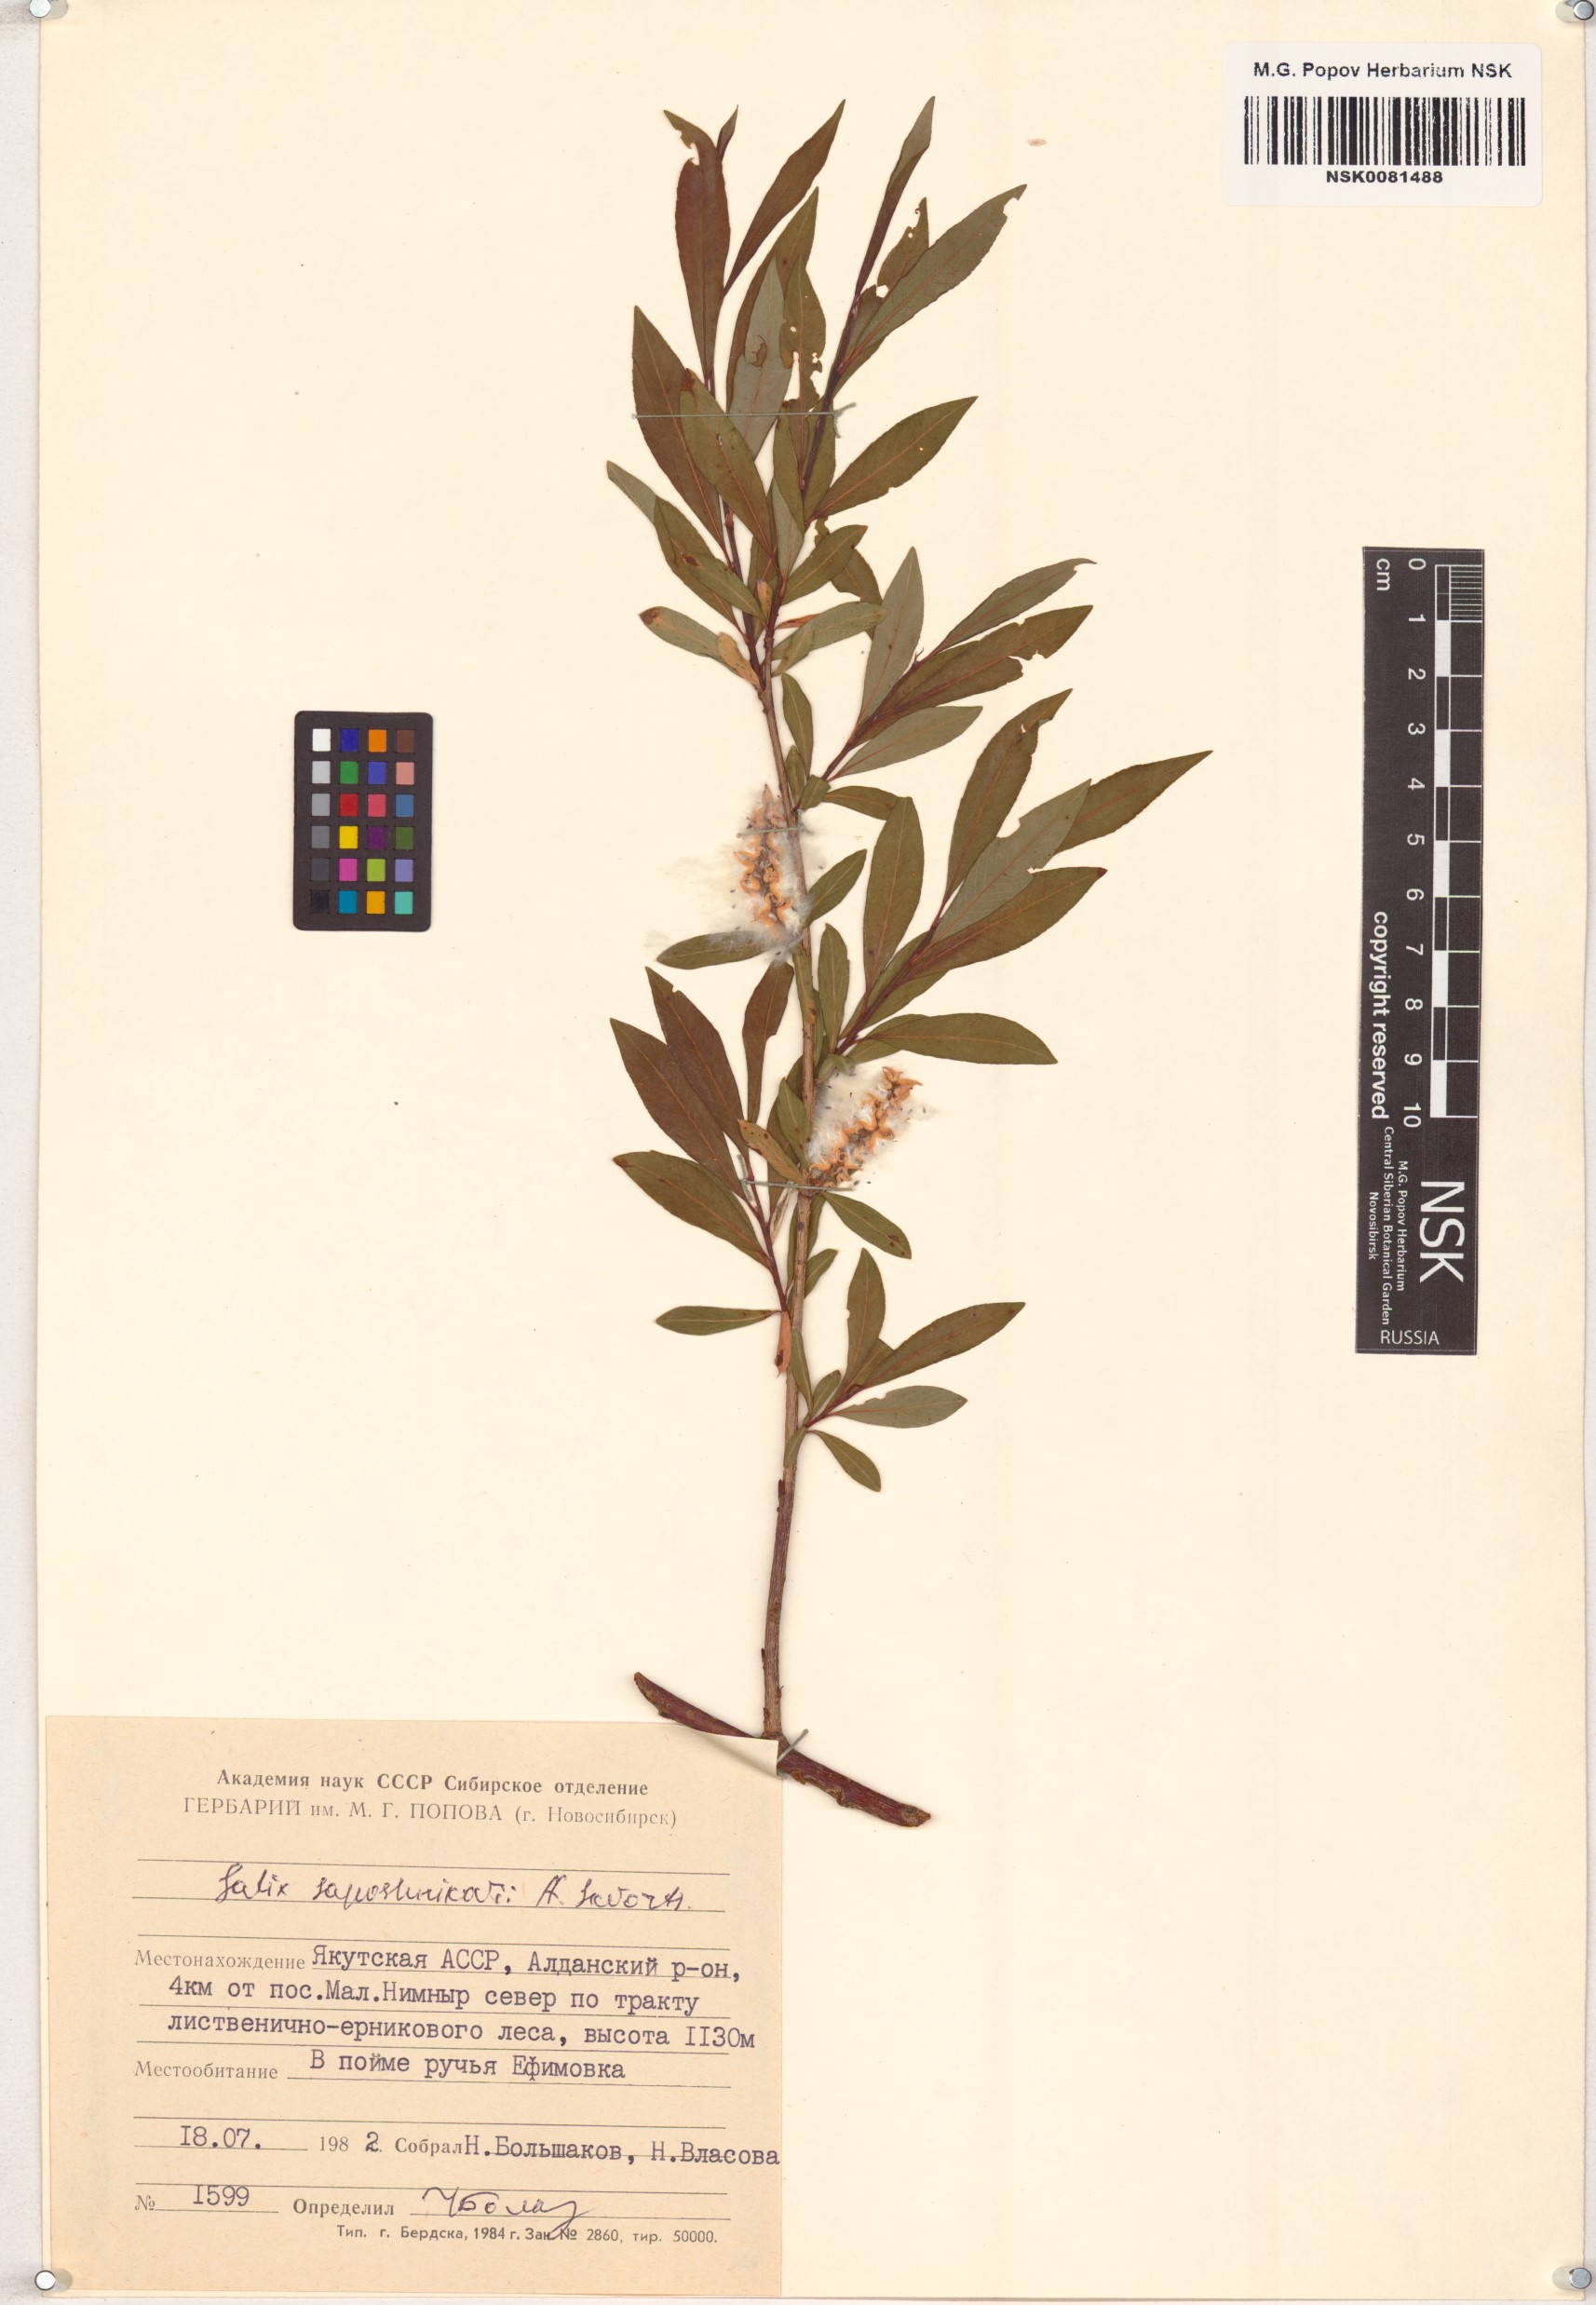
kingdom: Plantae
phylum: Tracheophyta
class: Magnoliopsida
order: Malpighiales
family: Salicaceae
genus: Salix
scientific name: Salix saposhnikovii
